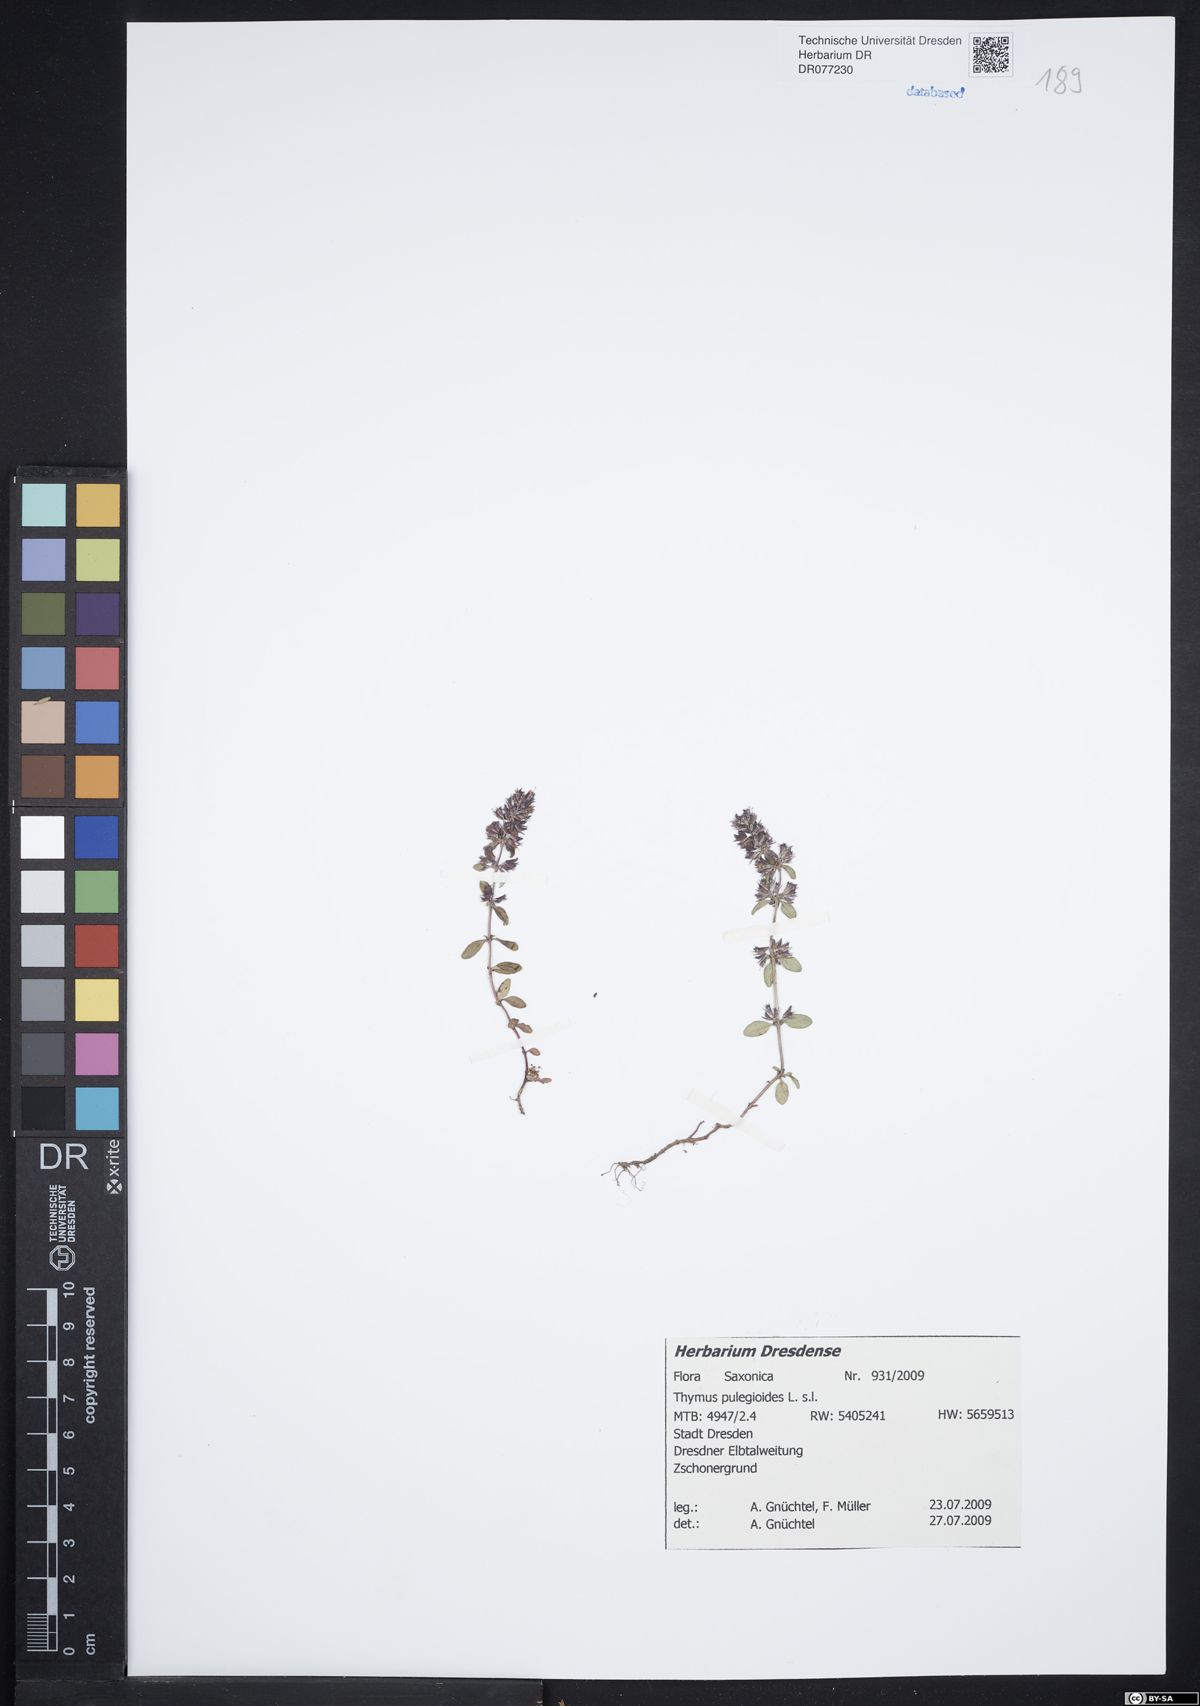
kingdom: Plantae
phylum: Tracheophyta
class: Magnoliopsida
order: Lamiales
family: Lamiaceae
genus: Thymus
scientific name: Thymus pulegioides
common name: Large thyme
